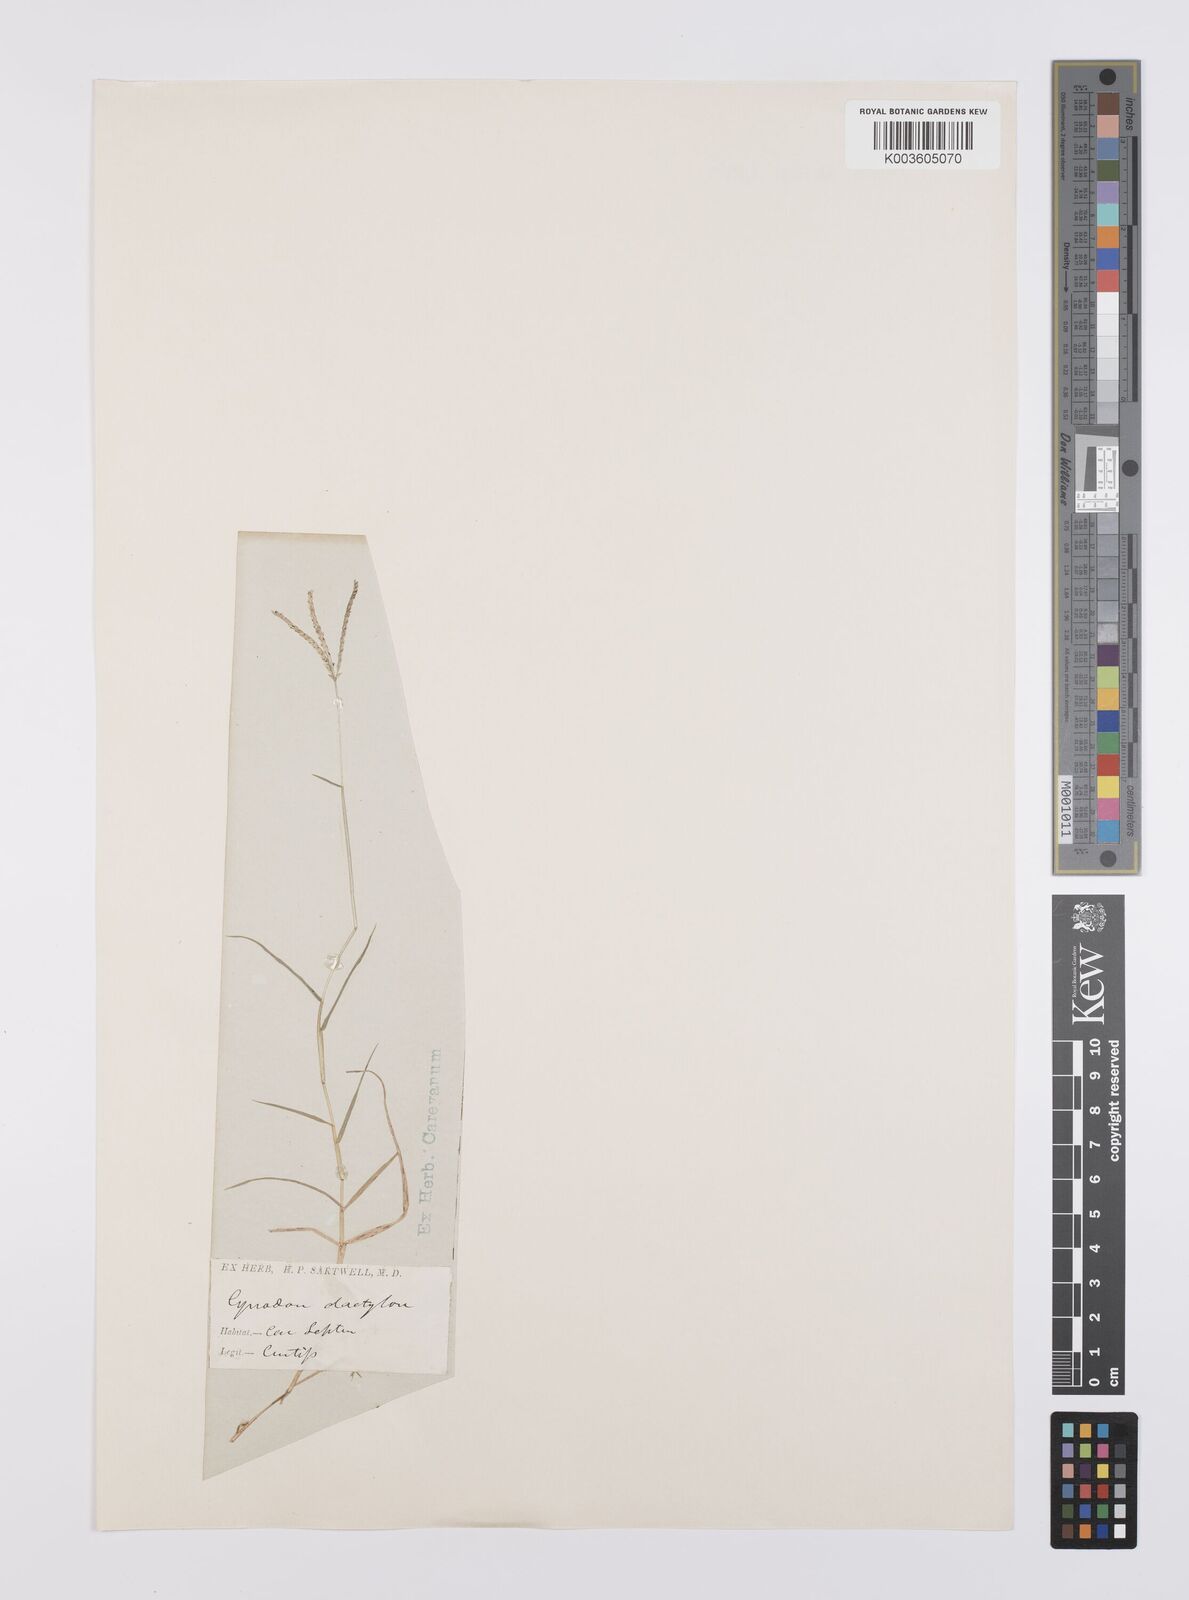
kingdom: Plantae
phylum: Tracheophyta
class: Liliopsida
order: Poales
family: Poaceae
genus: Cynodon
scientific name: Cynodon dactylon
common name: Bermuda grass
